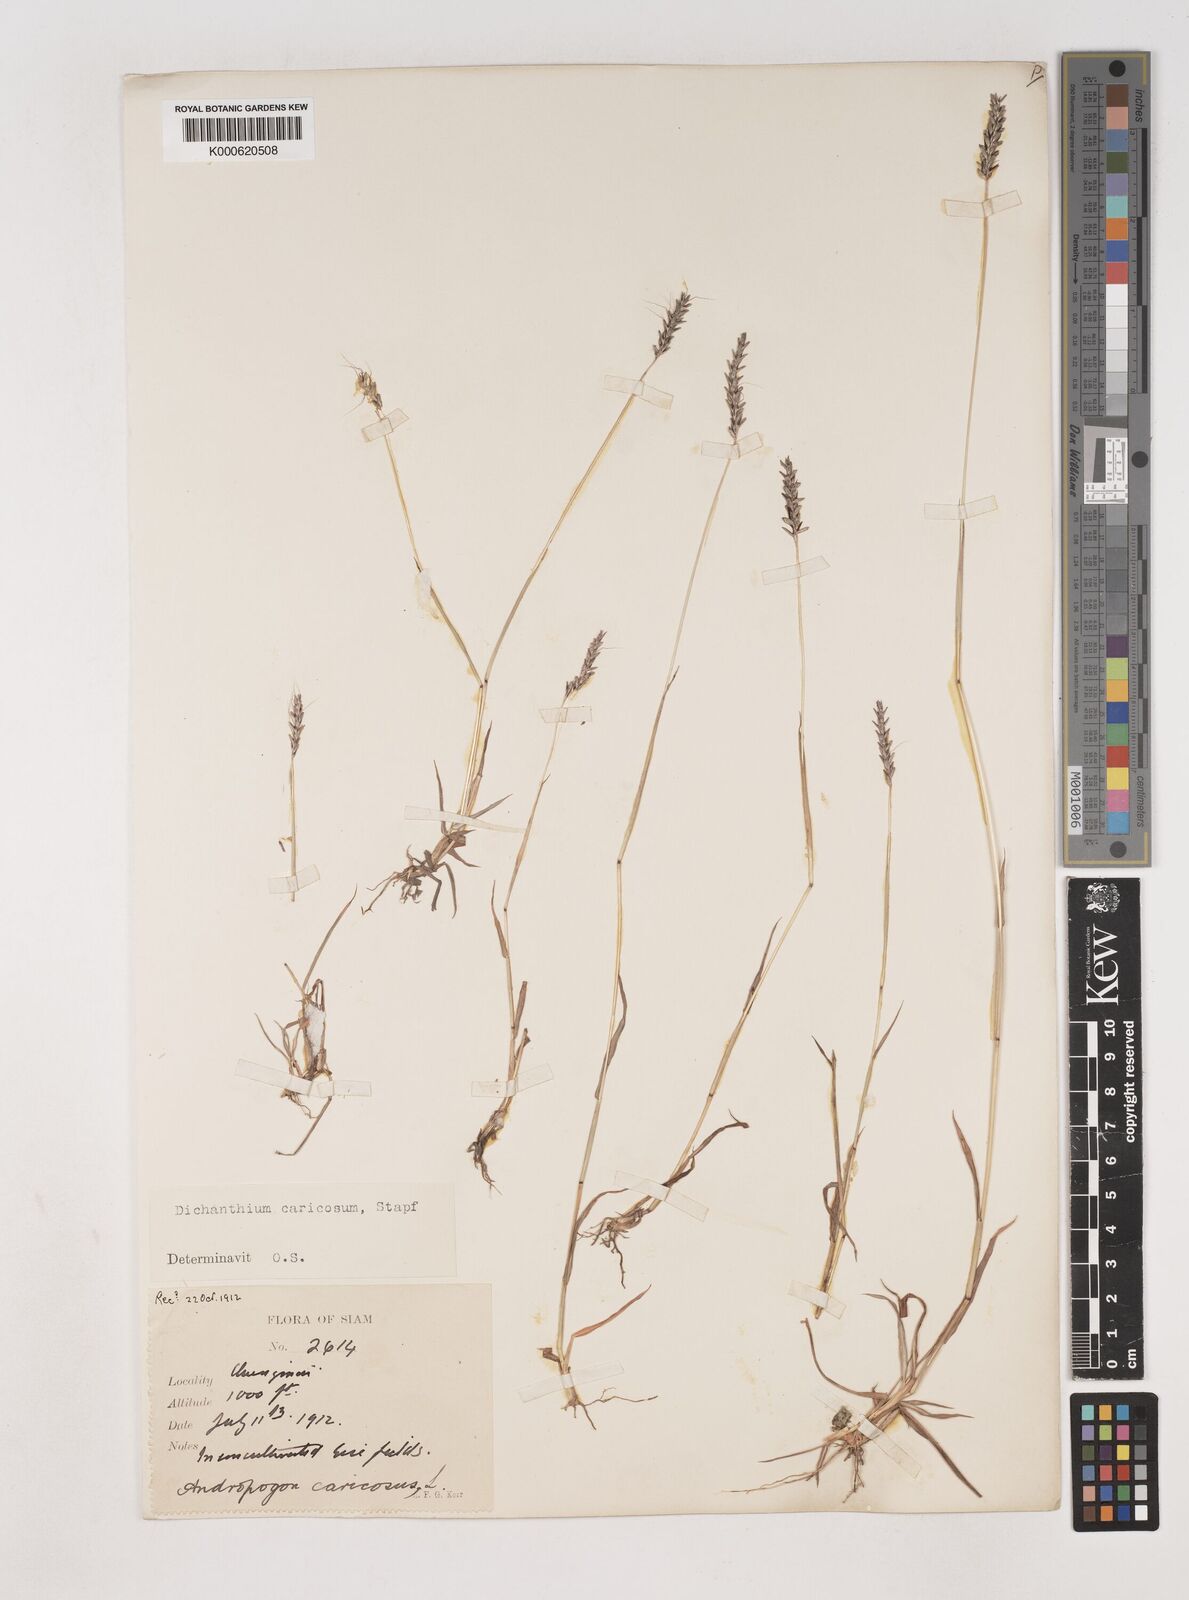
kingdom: Plantae
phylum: Tracheophyta
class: Liliopsida
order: Poales
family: Poaceae
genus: Dichanthium
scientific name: Dichanthium caricosum
